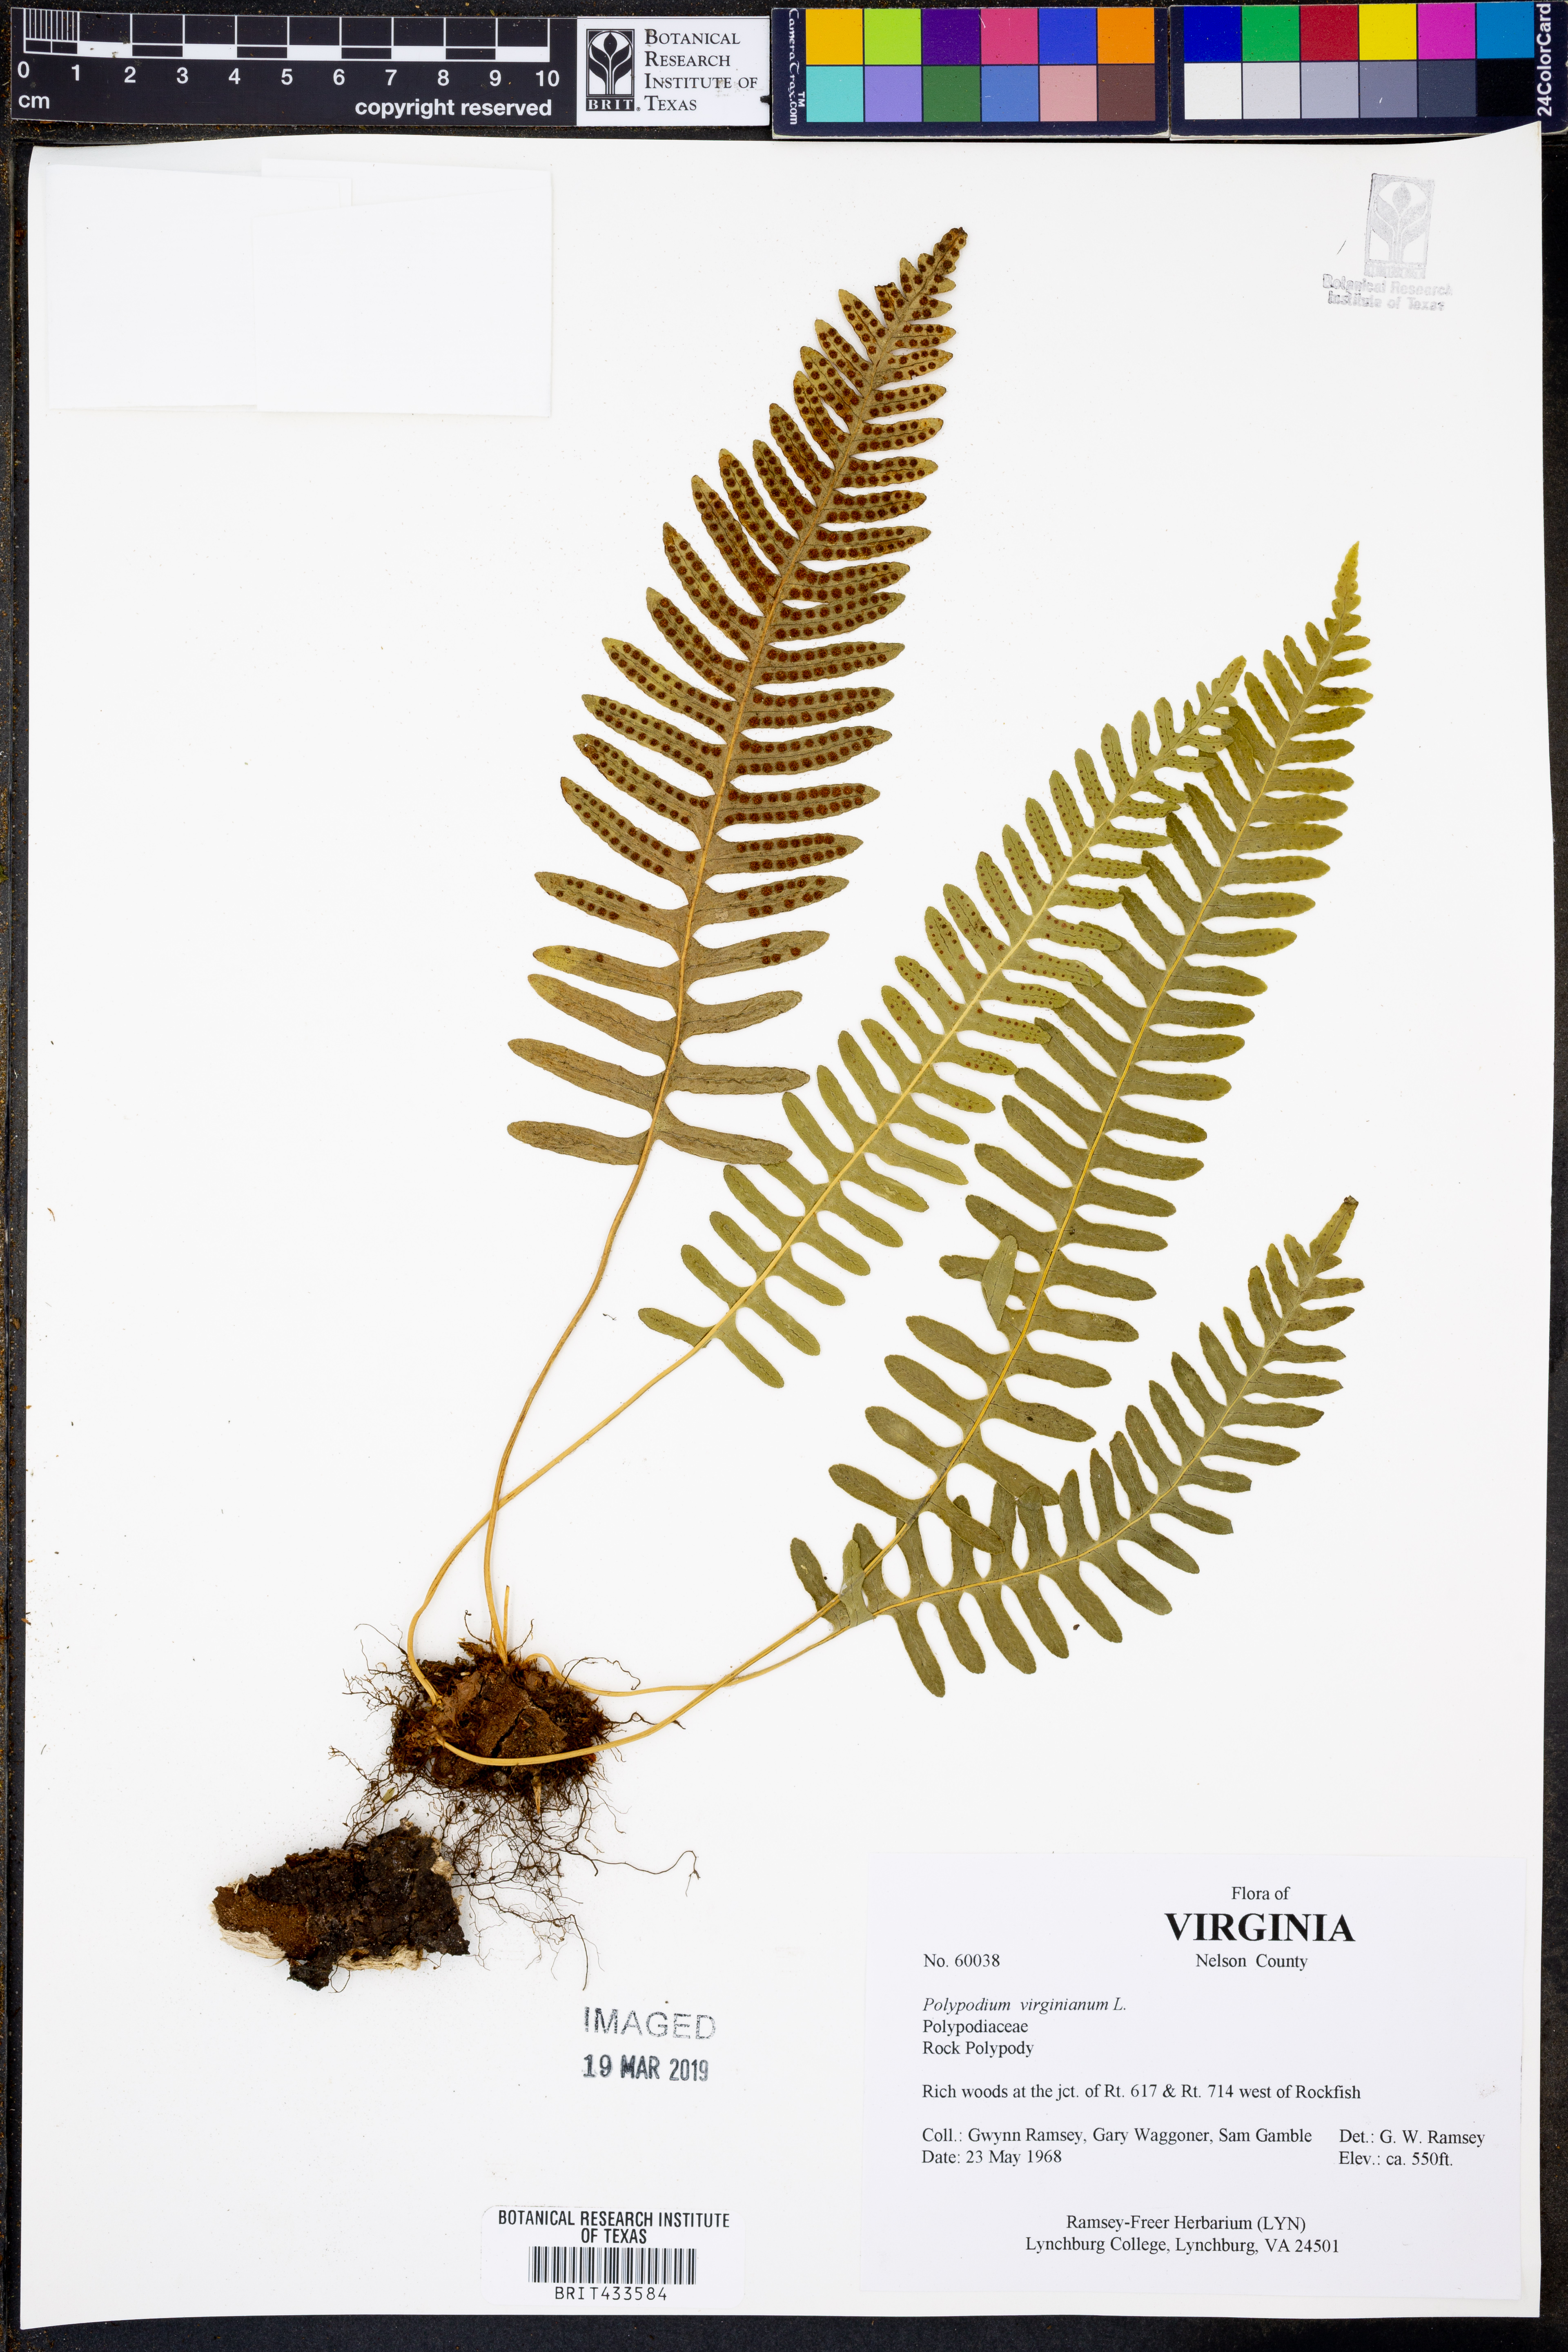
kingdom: Plantae
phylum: Tracheophyta
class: Polypodiopsida
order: Polypodiales
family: Polypodiaceae
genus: Polypodium
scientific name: Polypodium virginianum
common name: American wall fern
